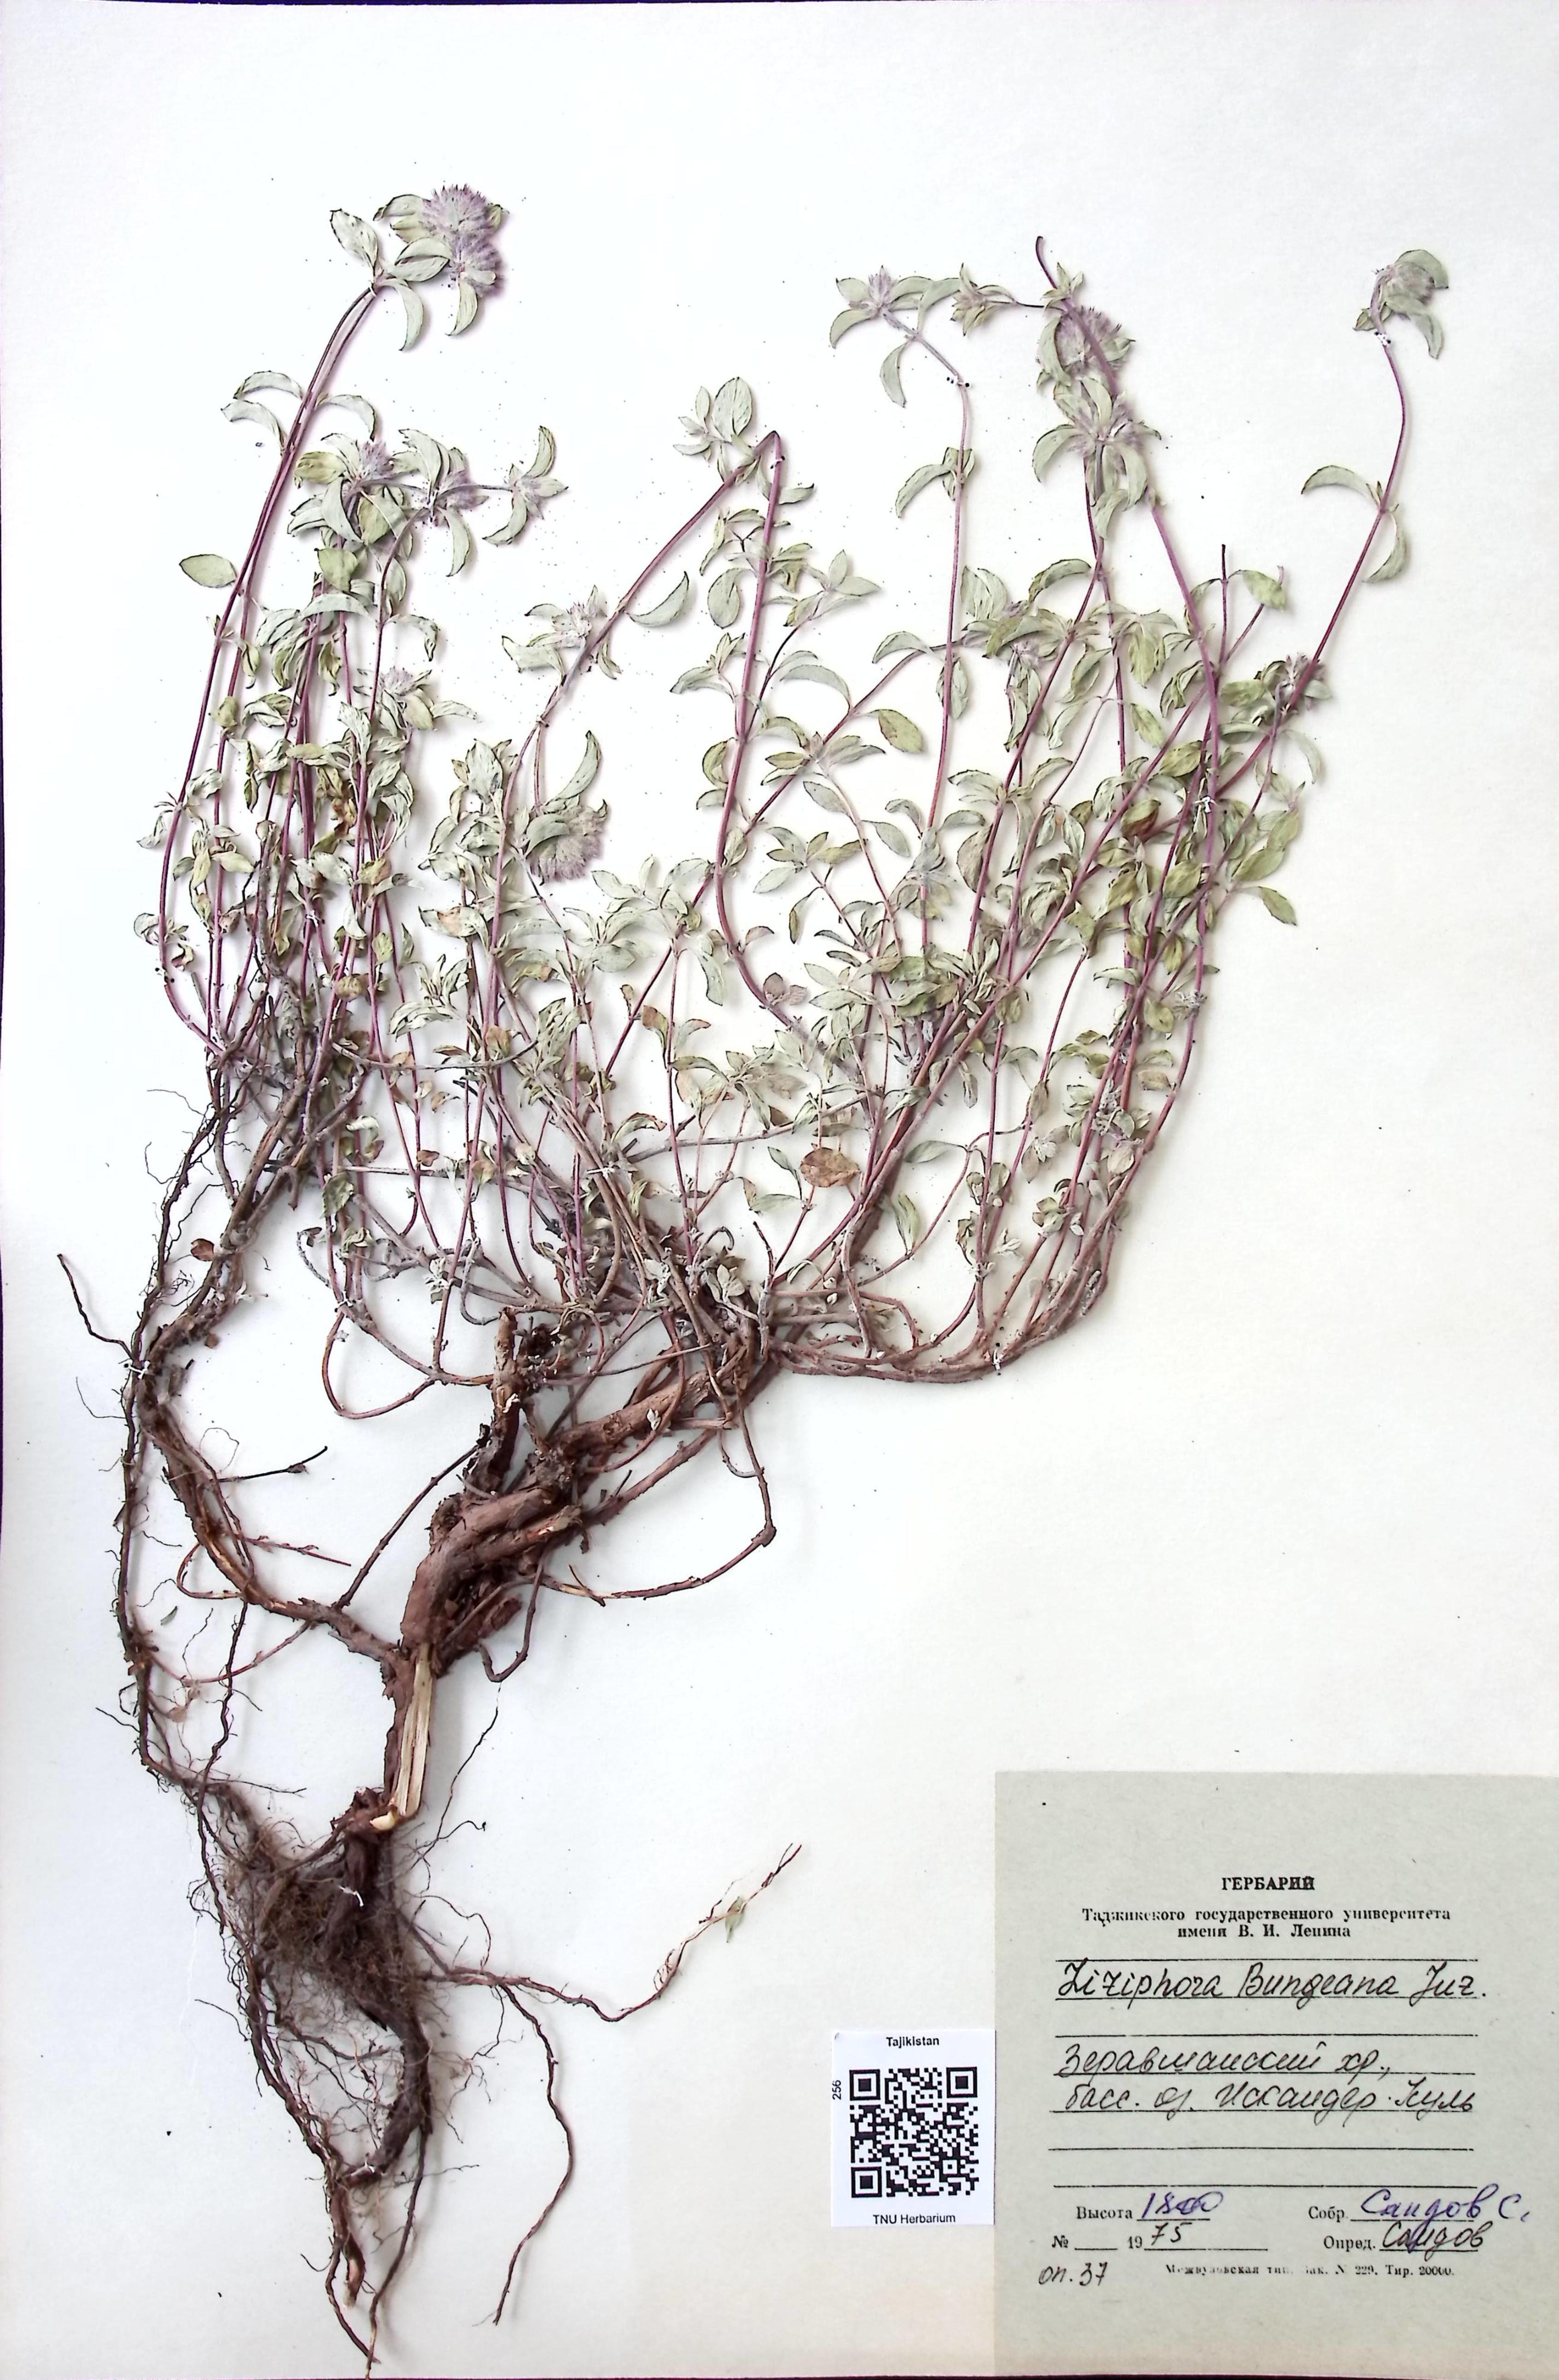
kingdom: Plantae
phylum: Tracheophyta
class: Magnoliopsida
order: Lamiales
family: Lamiaceae
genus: Ziziphora
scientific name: Ziziphora clinopodioides
